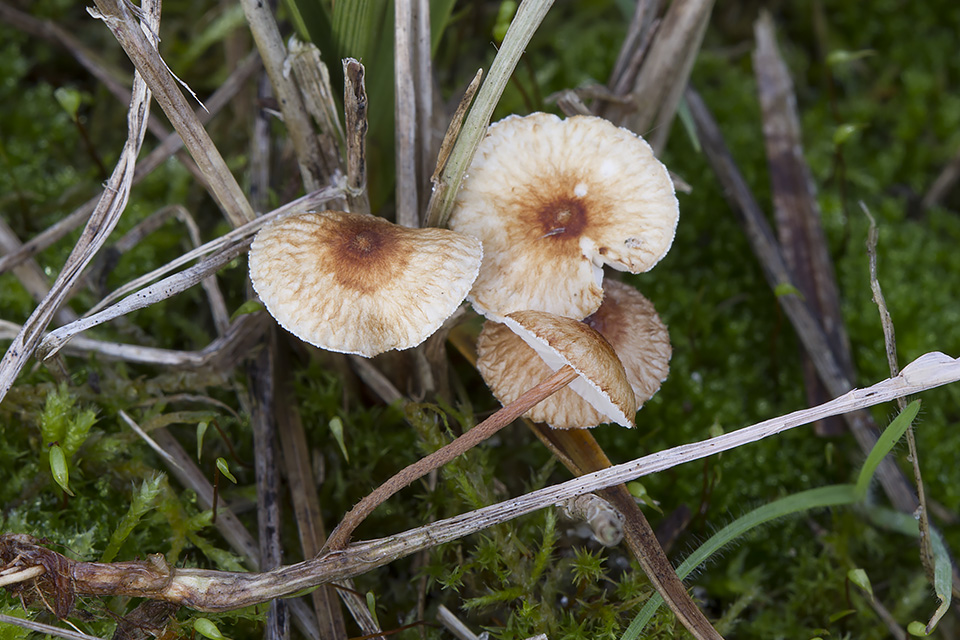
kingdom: Fungi
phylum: Basidiomycota
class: Agaricomycetes
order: Agaricales
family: Marasmiaceae
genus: Crinipellis
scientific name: Crinipellis scabella
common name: børstefod
